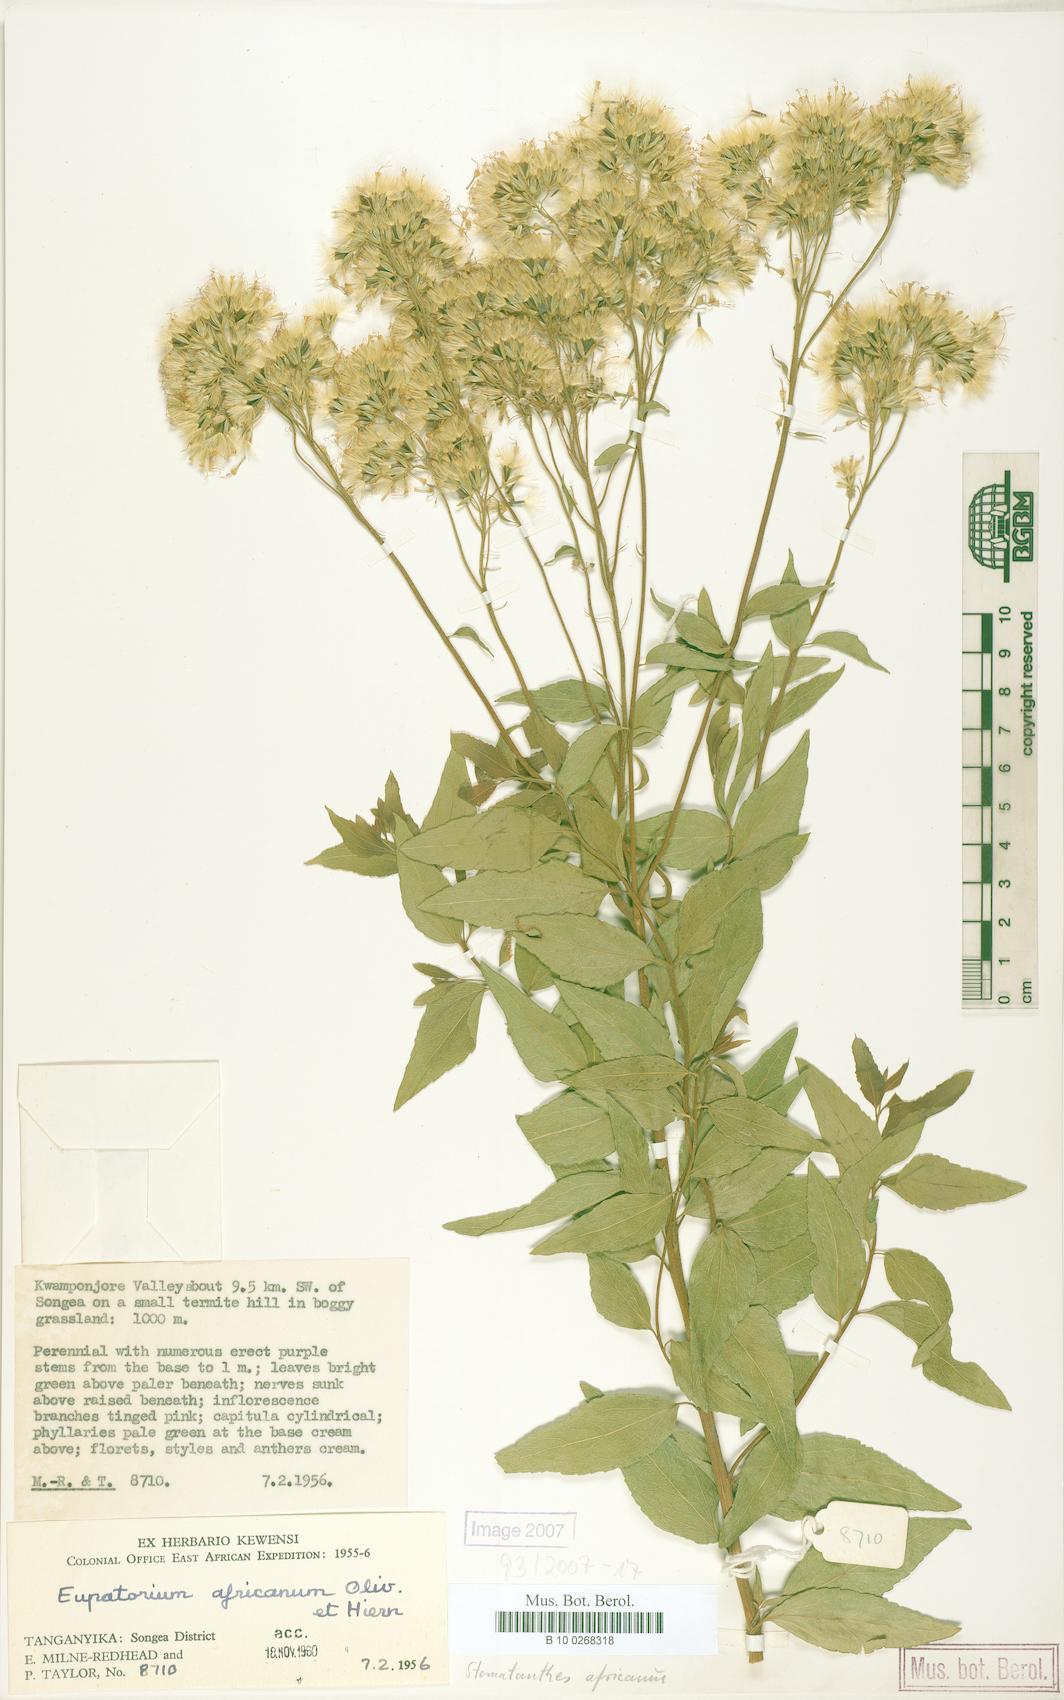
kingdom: Plantae
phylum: Tracheophyta
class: Magnoliopsida
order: Asterales
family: Asteraceae
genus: Stomatanthes
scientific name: Stomatanthes africanus
